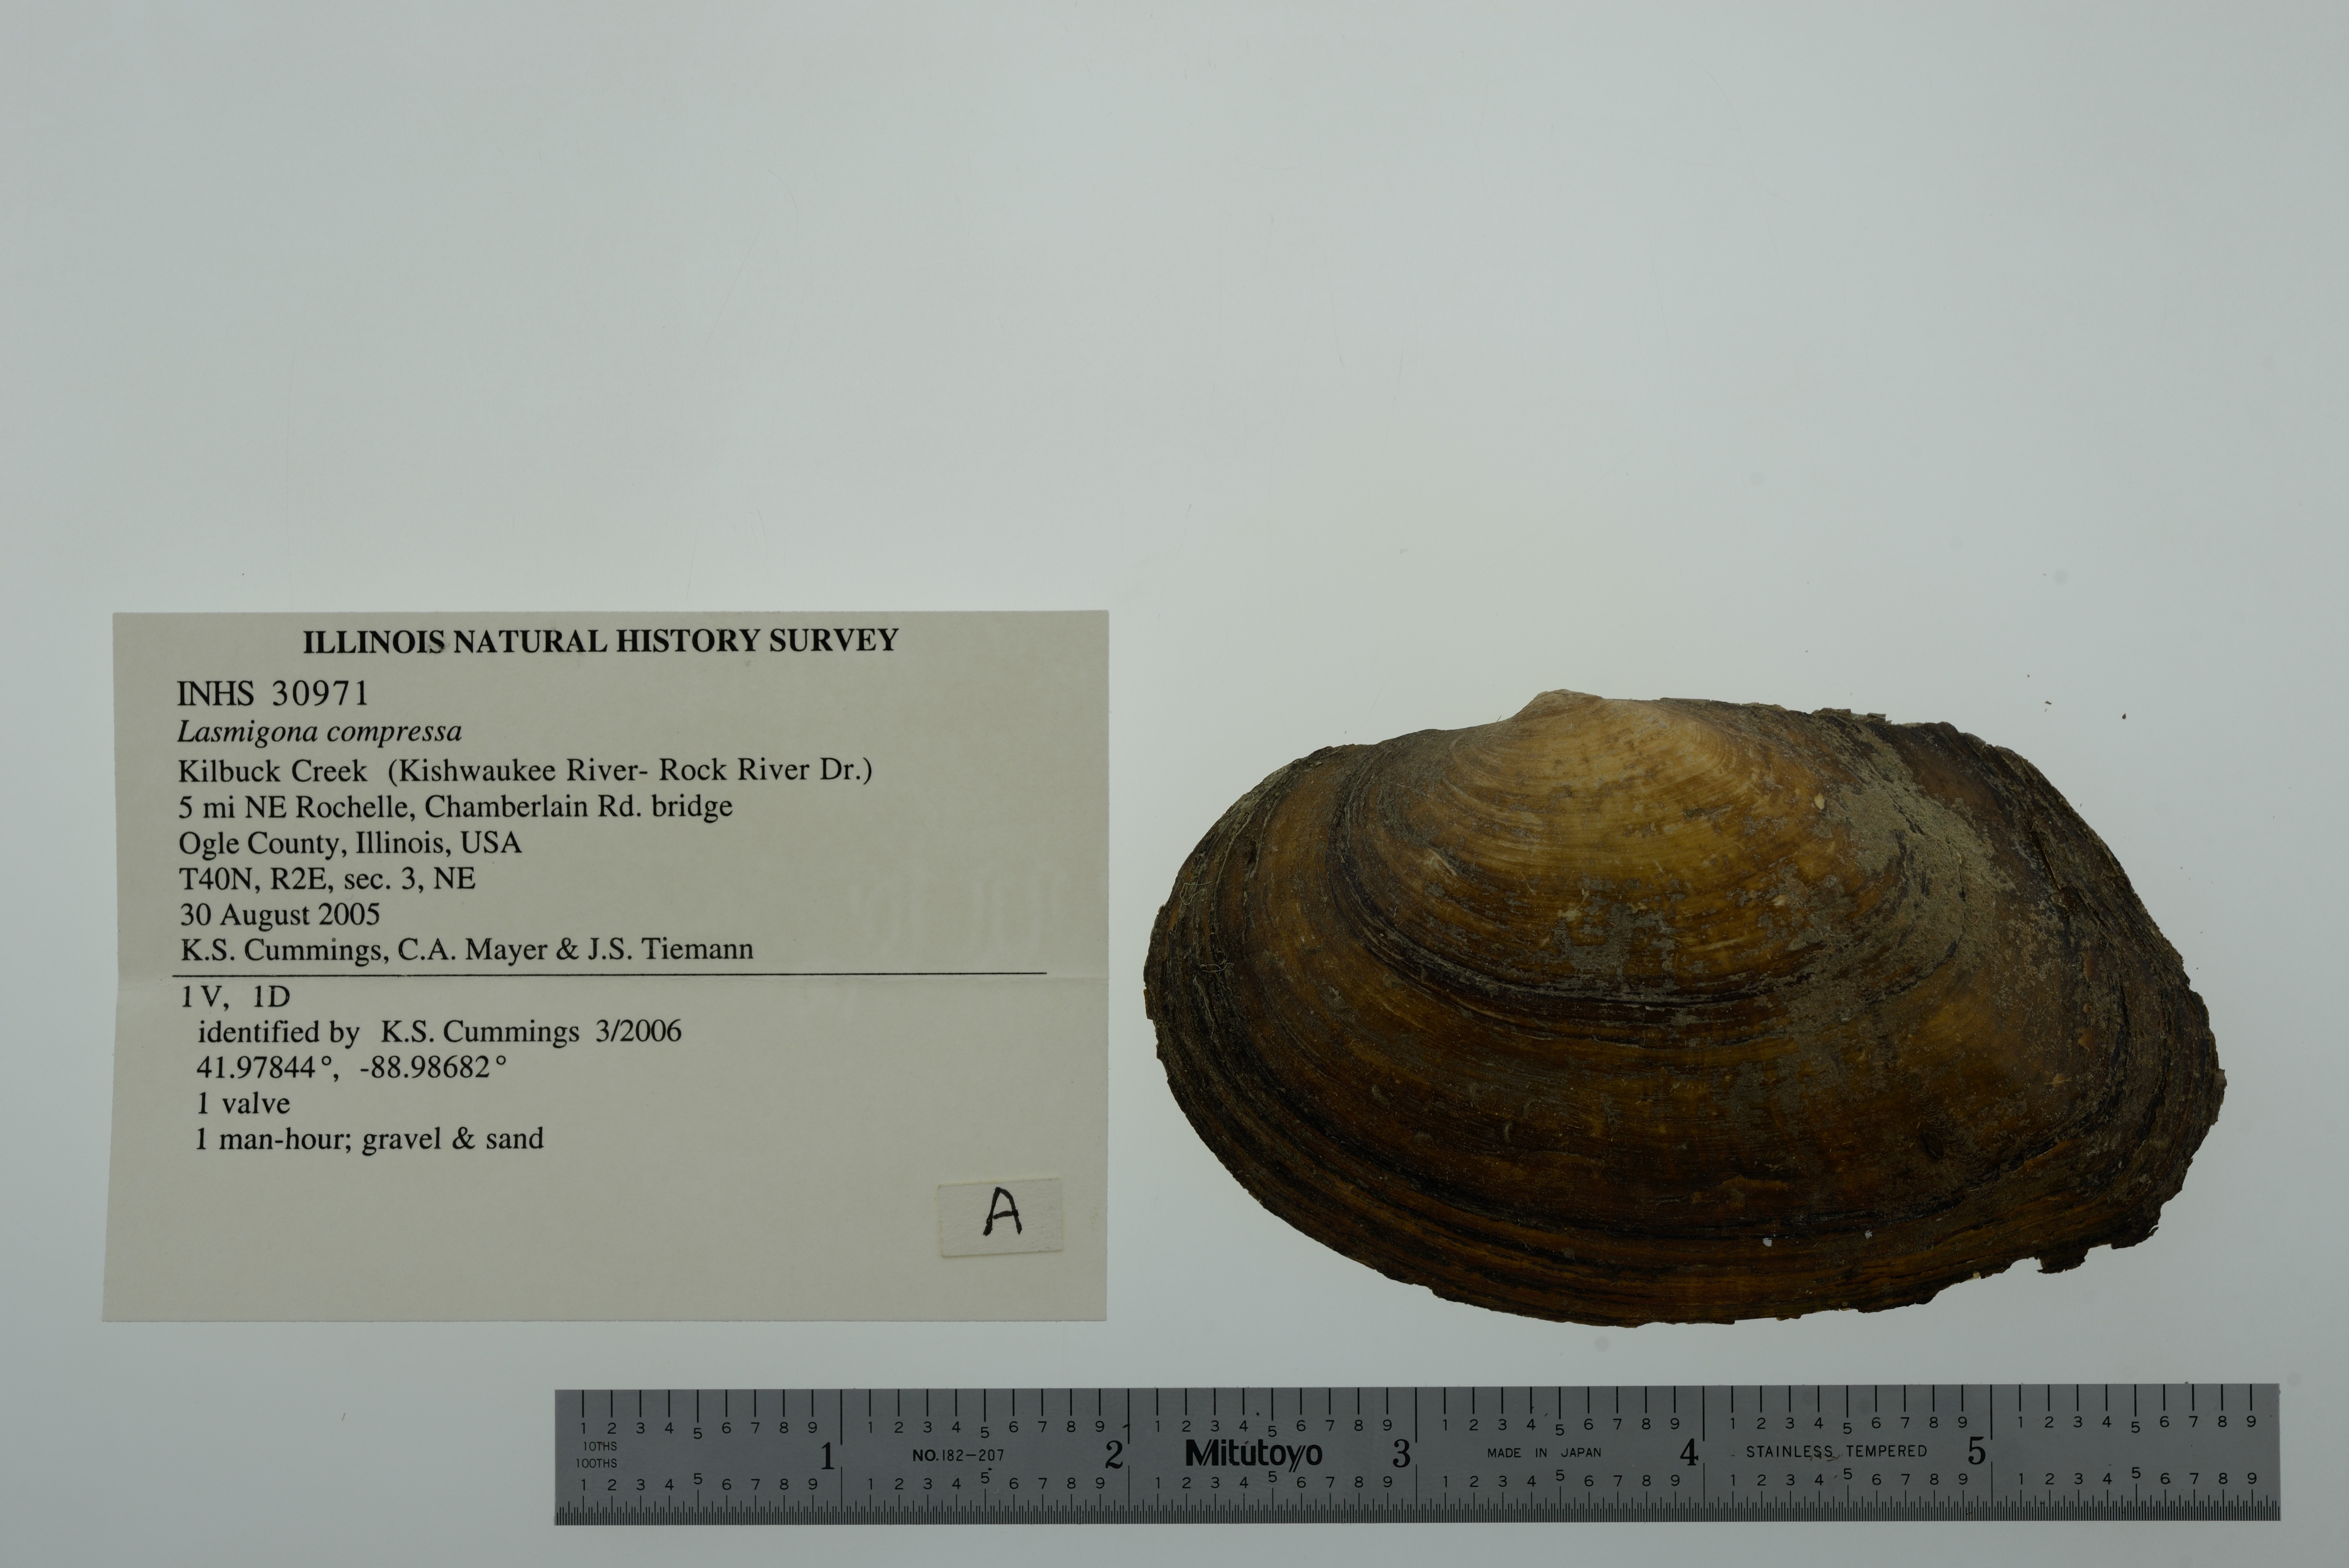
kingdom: Animalia
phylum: Mollusca
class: Bivalvia
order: Unionida
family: Unionidae
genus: Lasmigona
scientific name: Lasmigona compressa
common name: Creek heelsplitter
